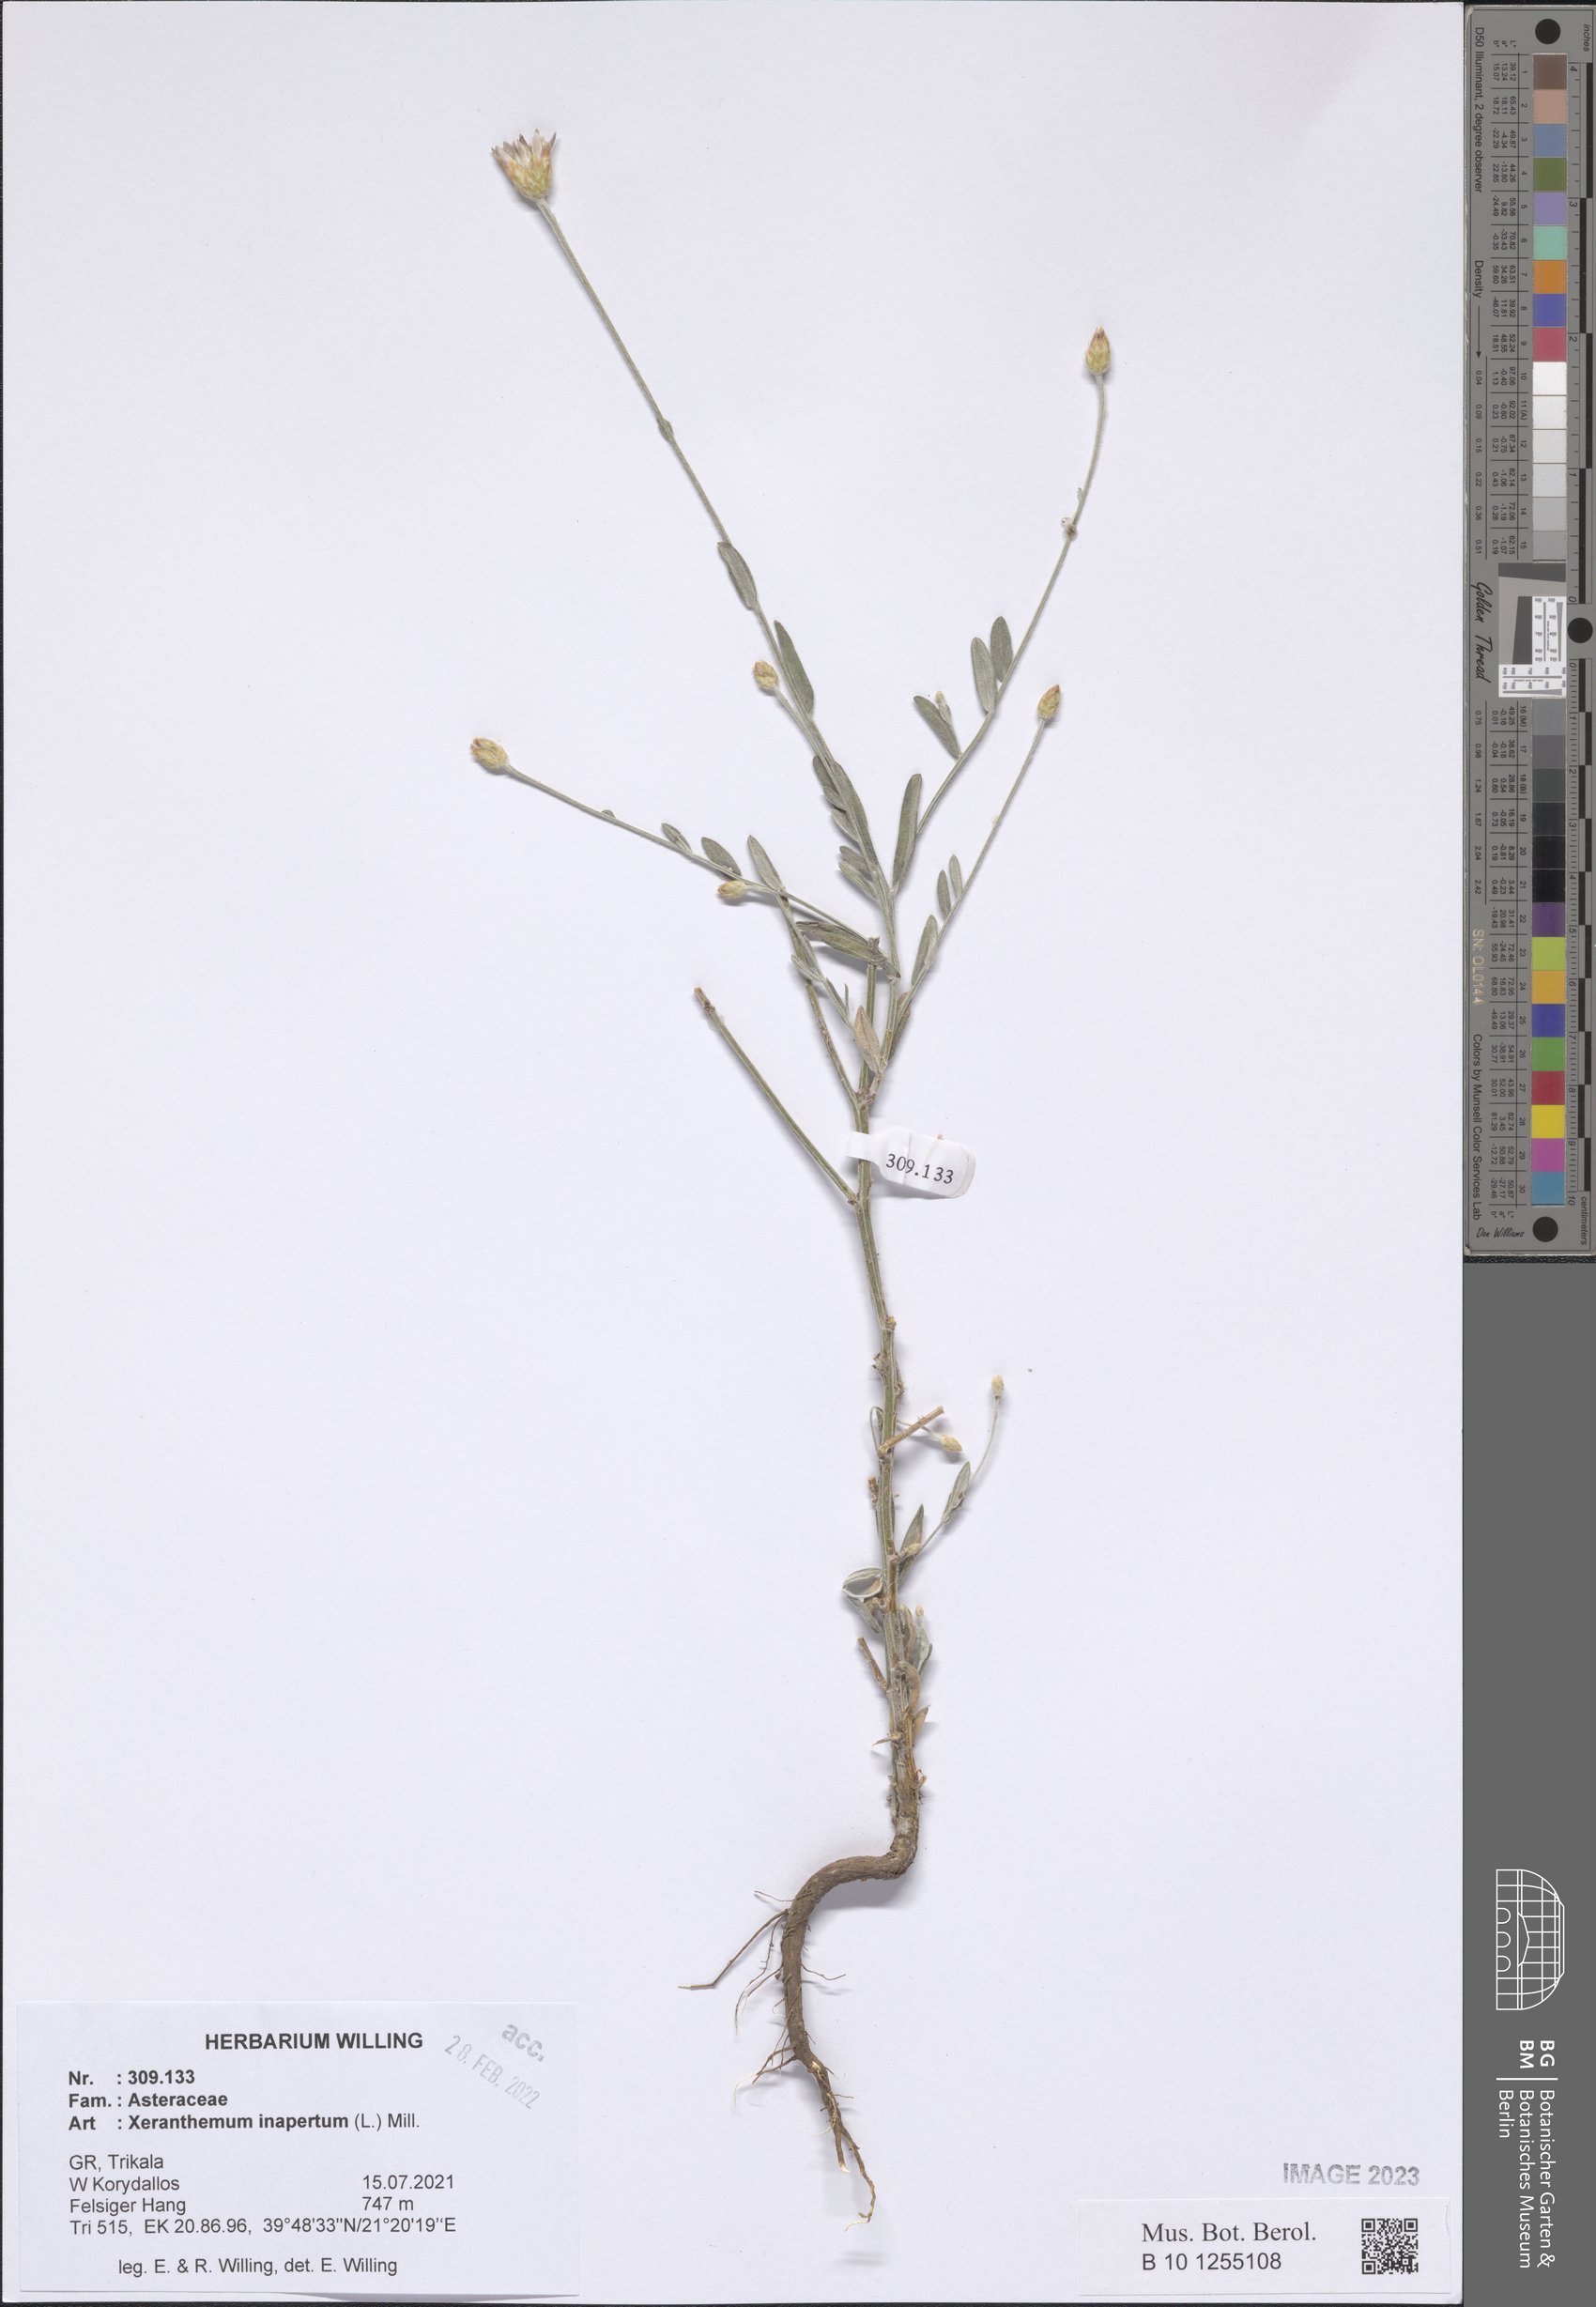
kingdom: Plantae
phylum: Tracheophyta
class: Magnoliopsida
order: Asterales
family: Asteraceae
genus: Xeranthemum
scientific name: Xeranthemum inapertum
